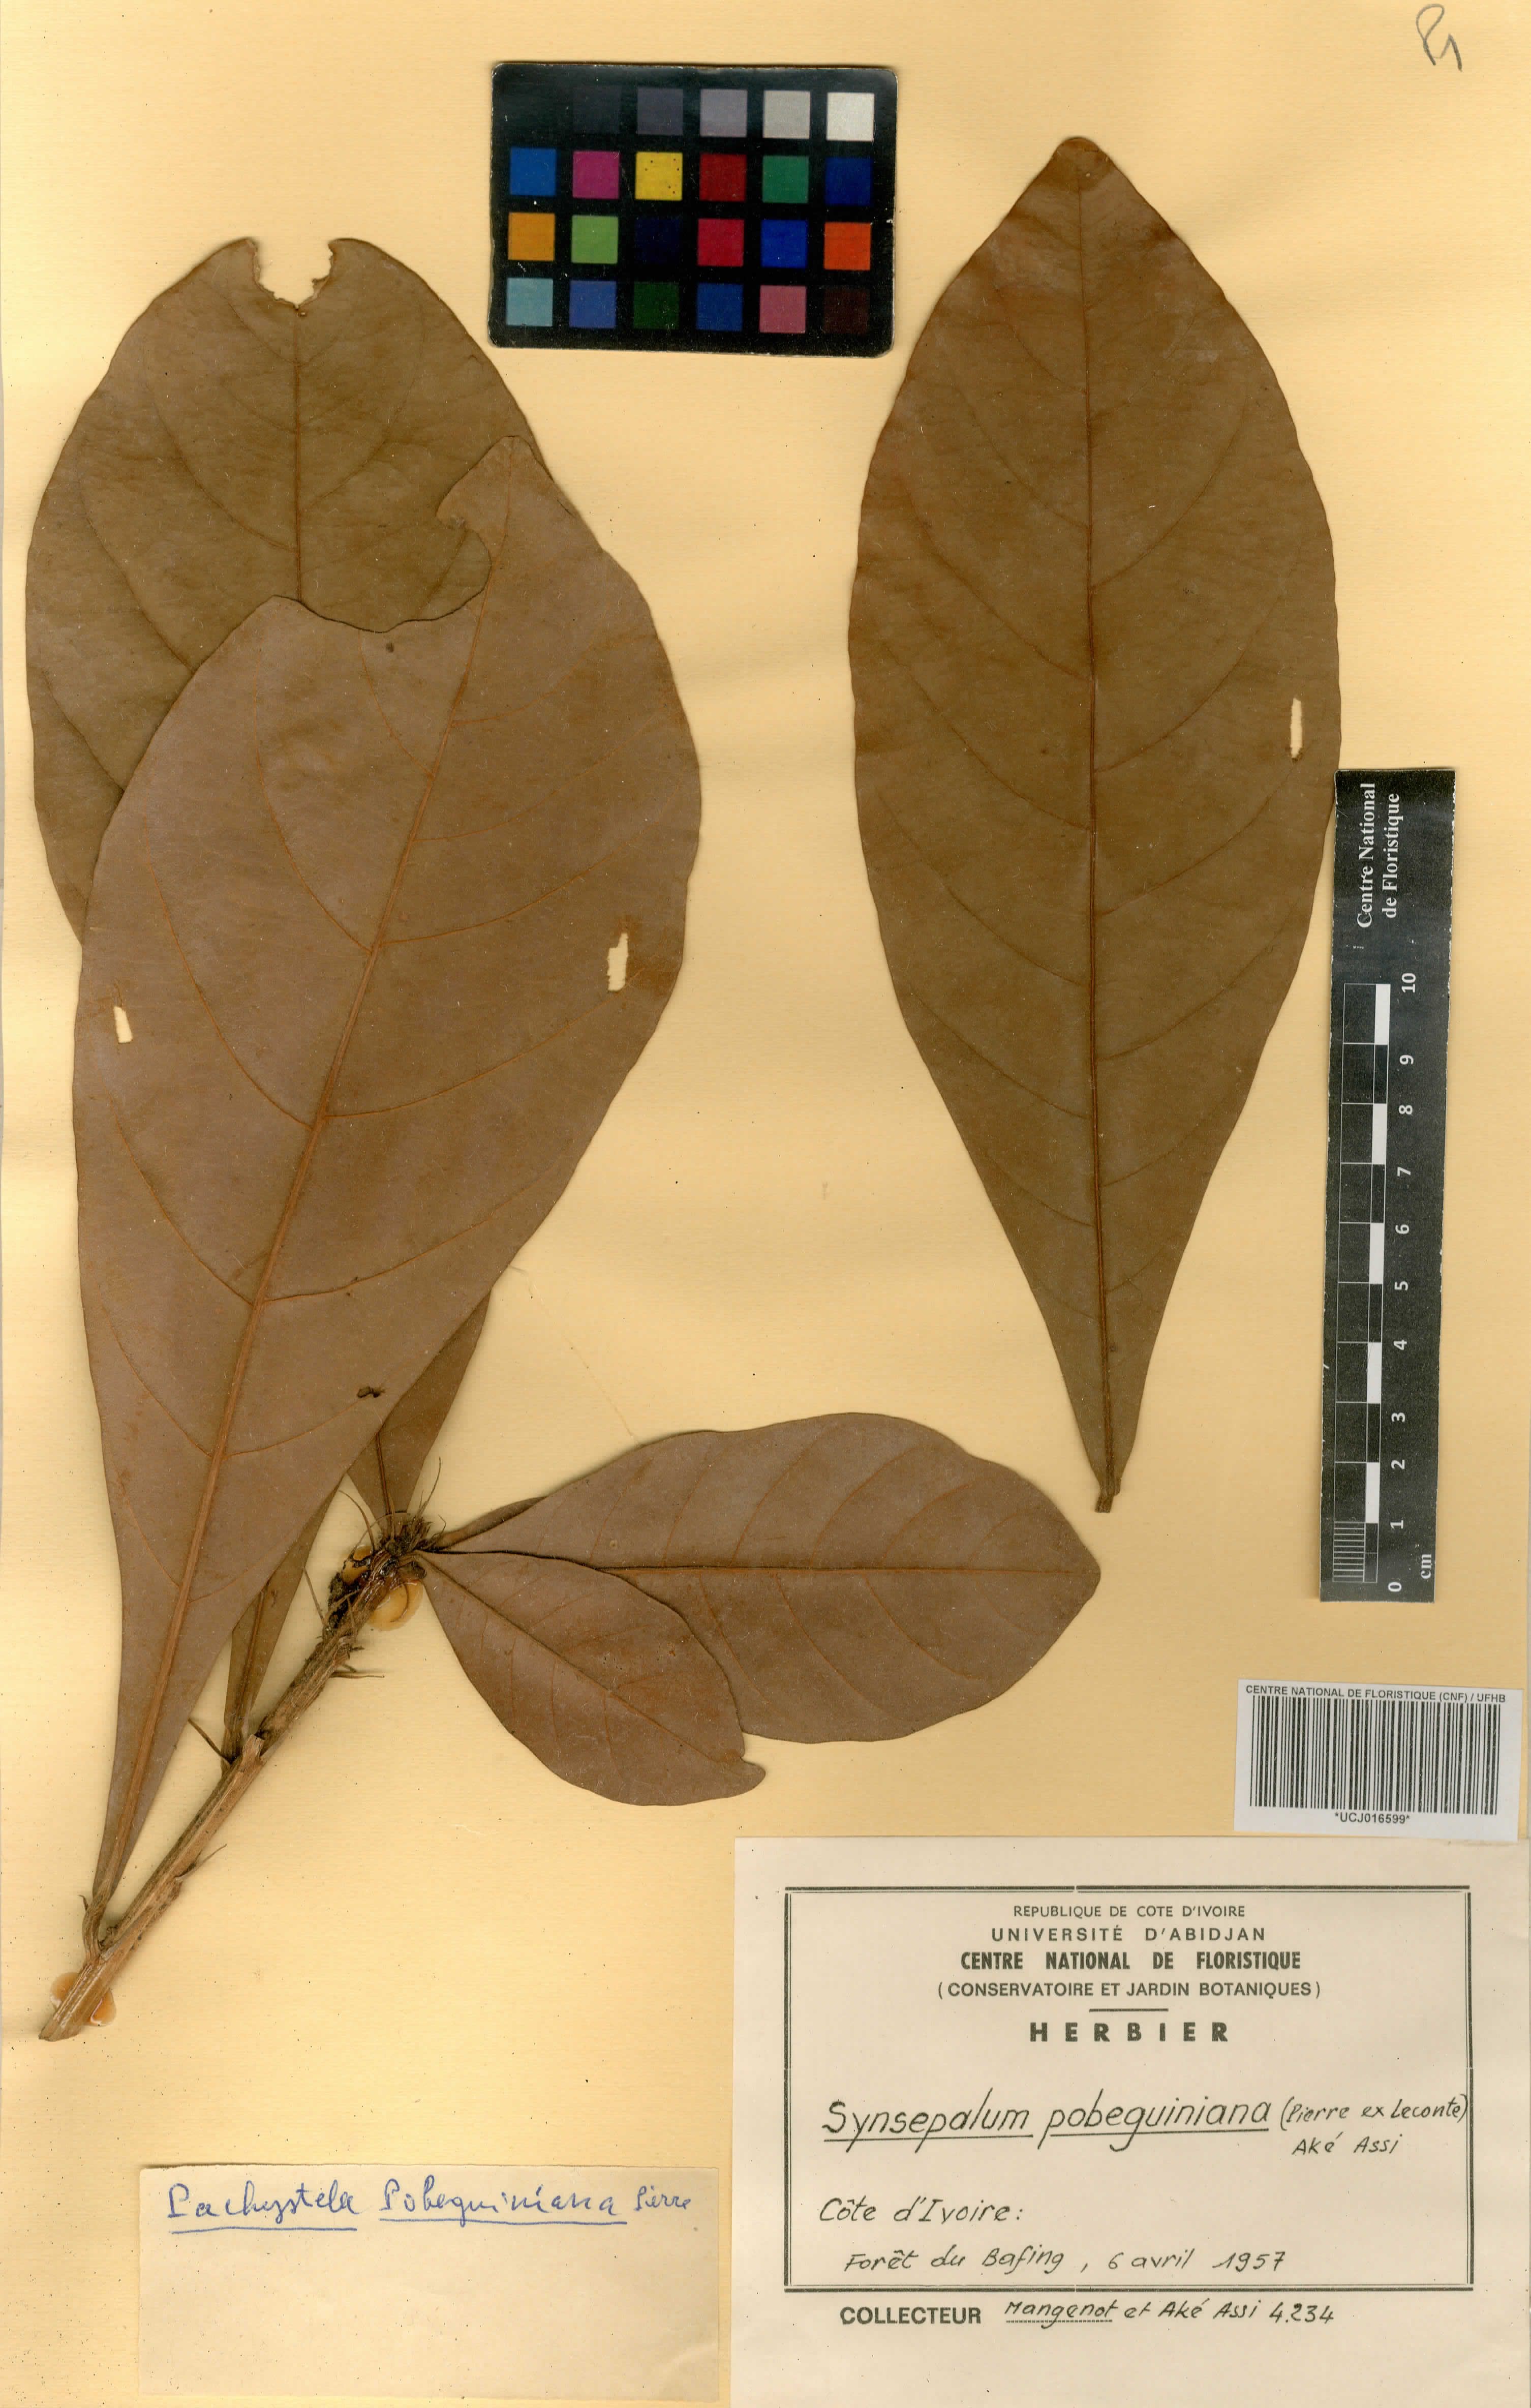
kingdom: Plantae
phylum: Tracheophyta
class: Magnoliopsida
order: Ericales
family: Sapotaceae
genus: Synsepalum
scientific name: Synsepalum pobeguinianum
